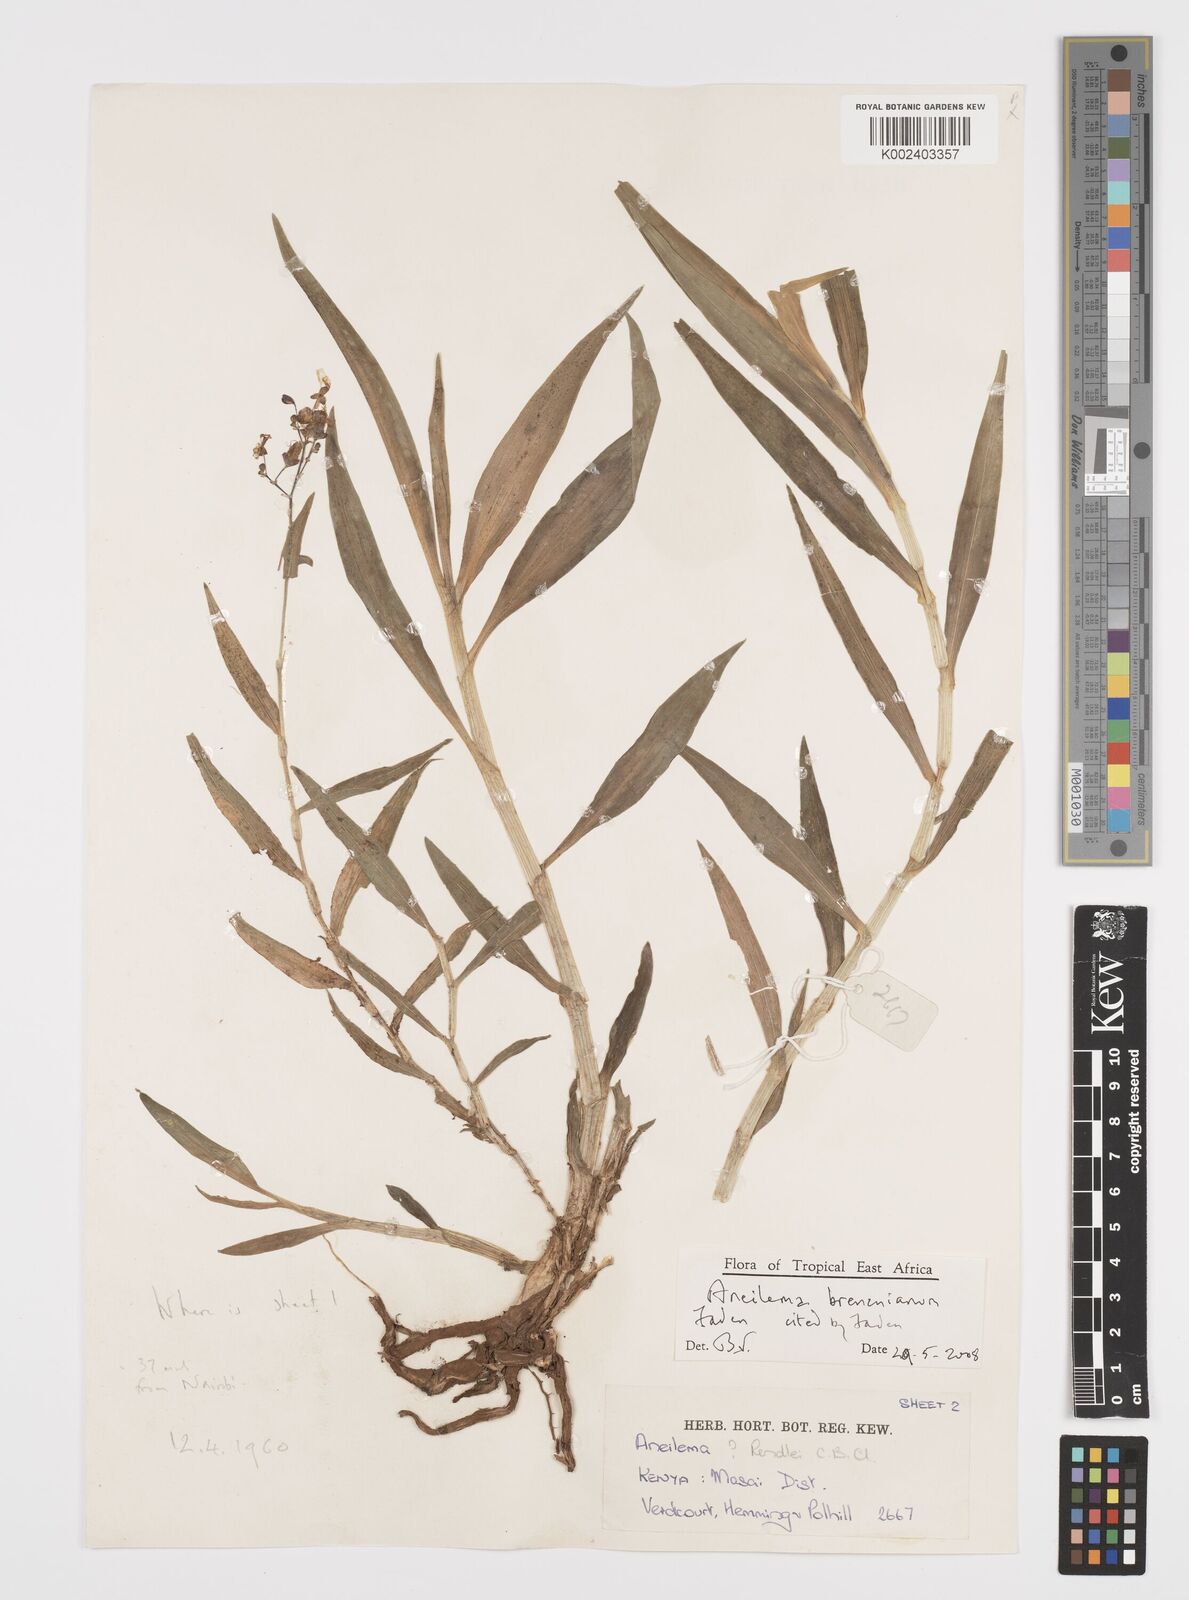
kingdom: Plantae
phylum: Tracheophyta
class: Liliopsida
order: Commelinales
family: Commelinaceae
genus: Aneilema
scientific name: Aneilema brenanianum
